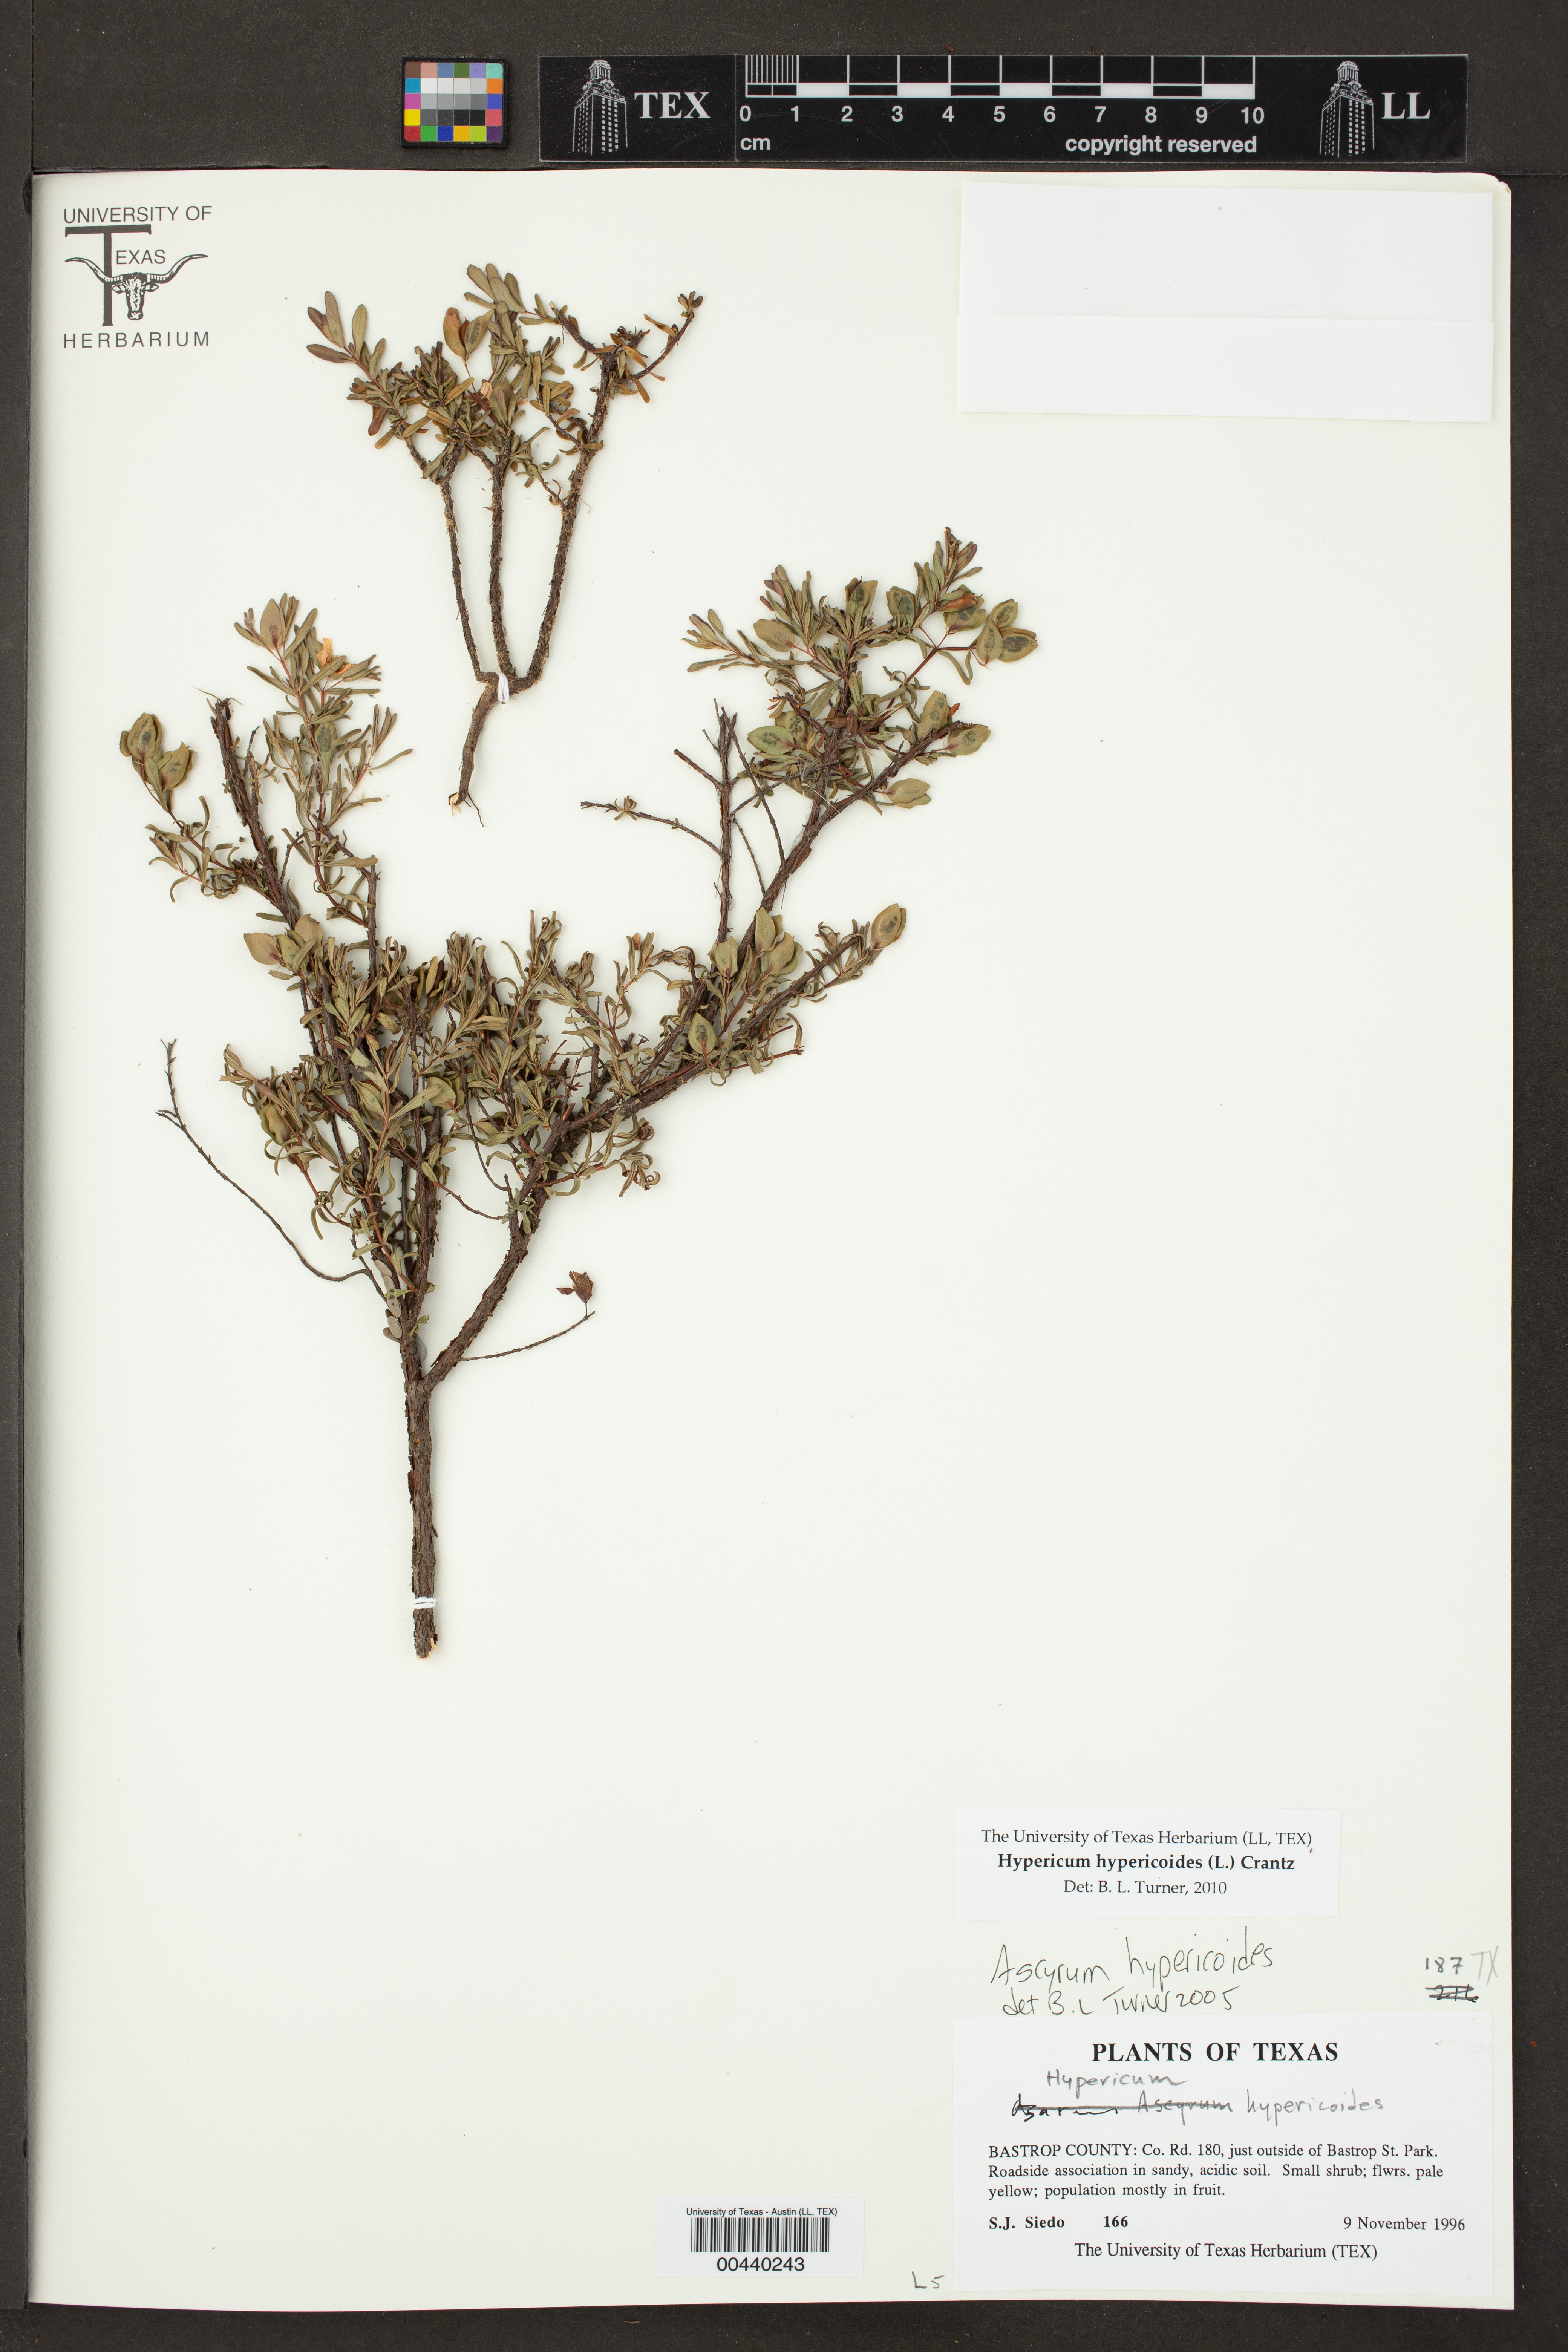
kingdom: Plantae
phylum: Tracheophyta
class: Magnoliopsida
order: Malpighiales
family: Hypericaceae
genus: Hypericum
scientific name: Hypericum hypericoides
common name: St. andrew's cross
